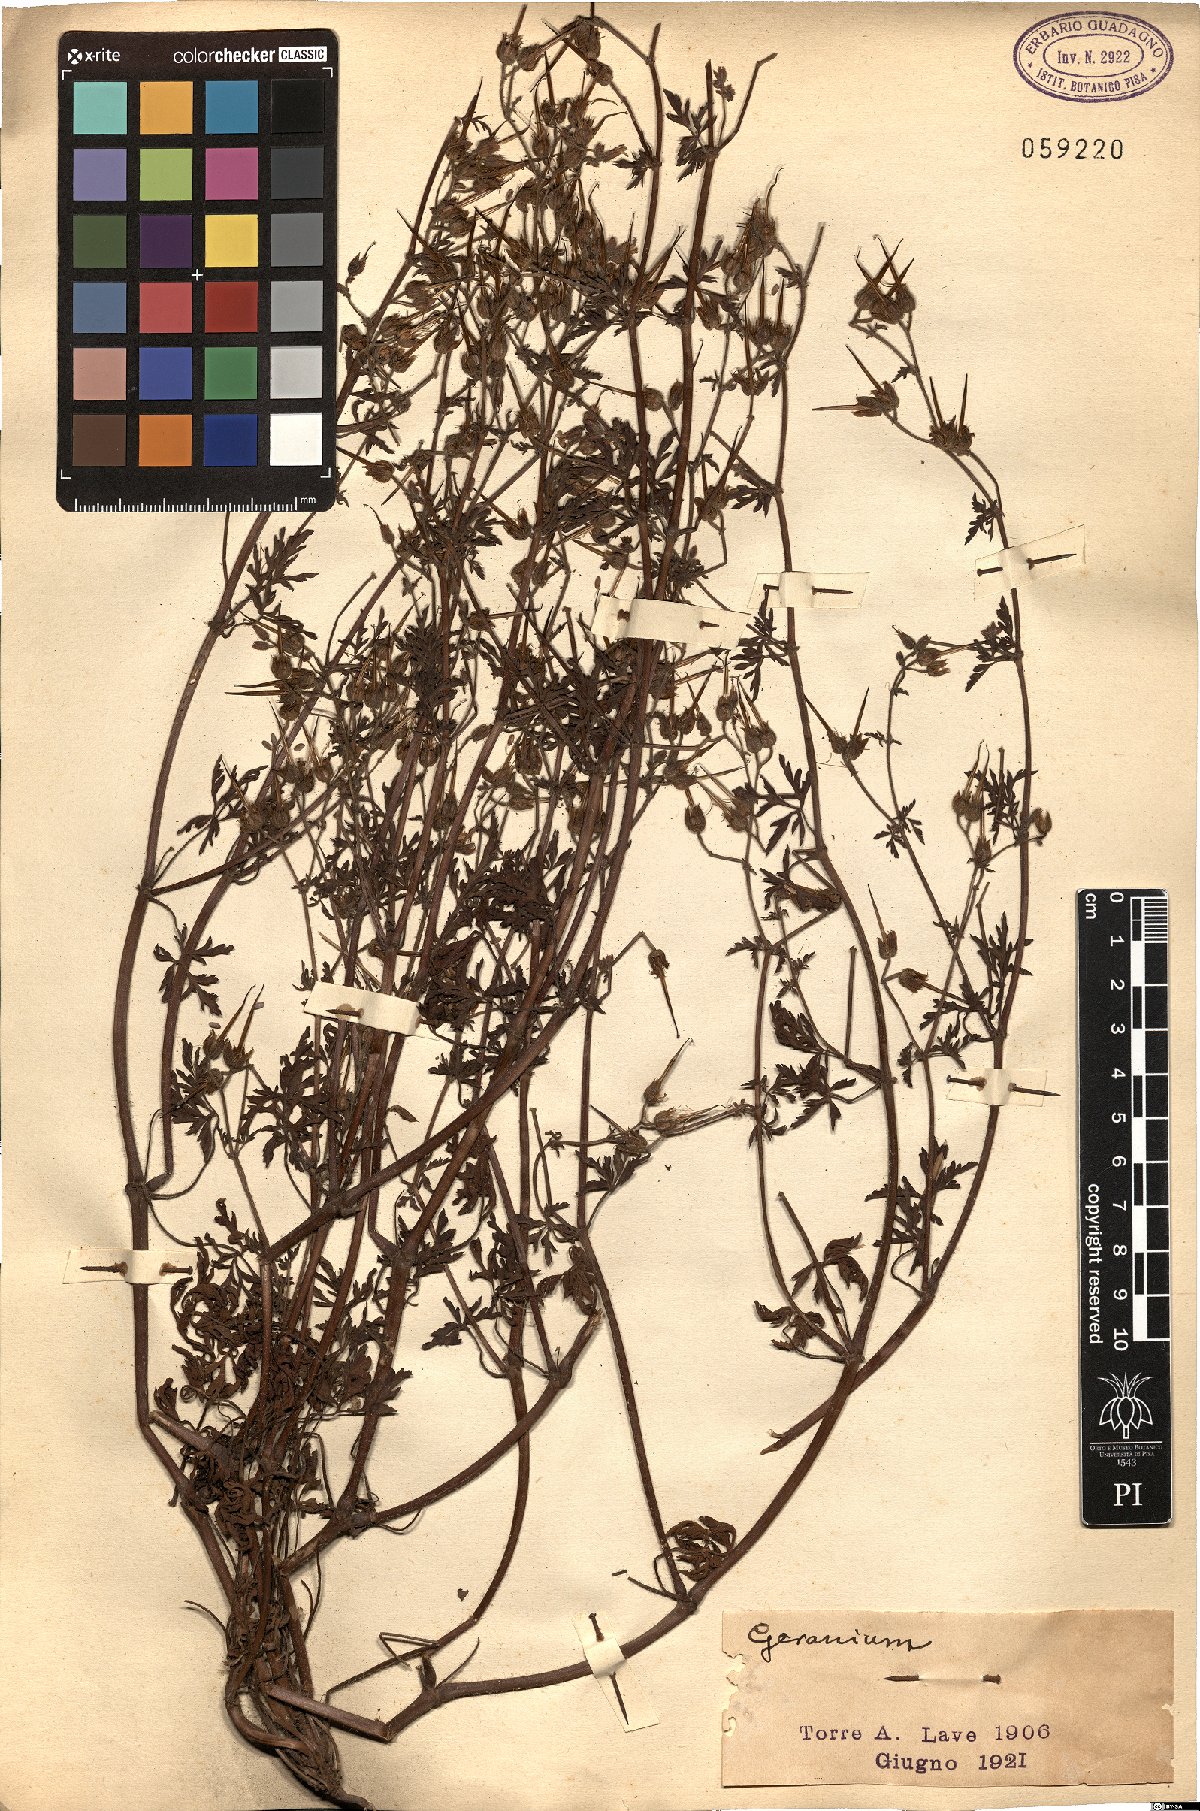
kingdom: Plantae
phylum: Tracheophyta
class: Magnoliopsida
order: Geraniales
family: Geraniaceae
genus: Geranium
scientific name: Geranium
